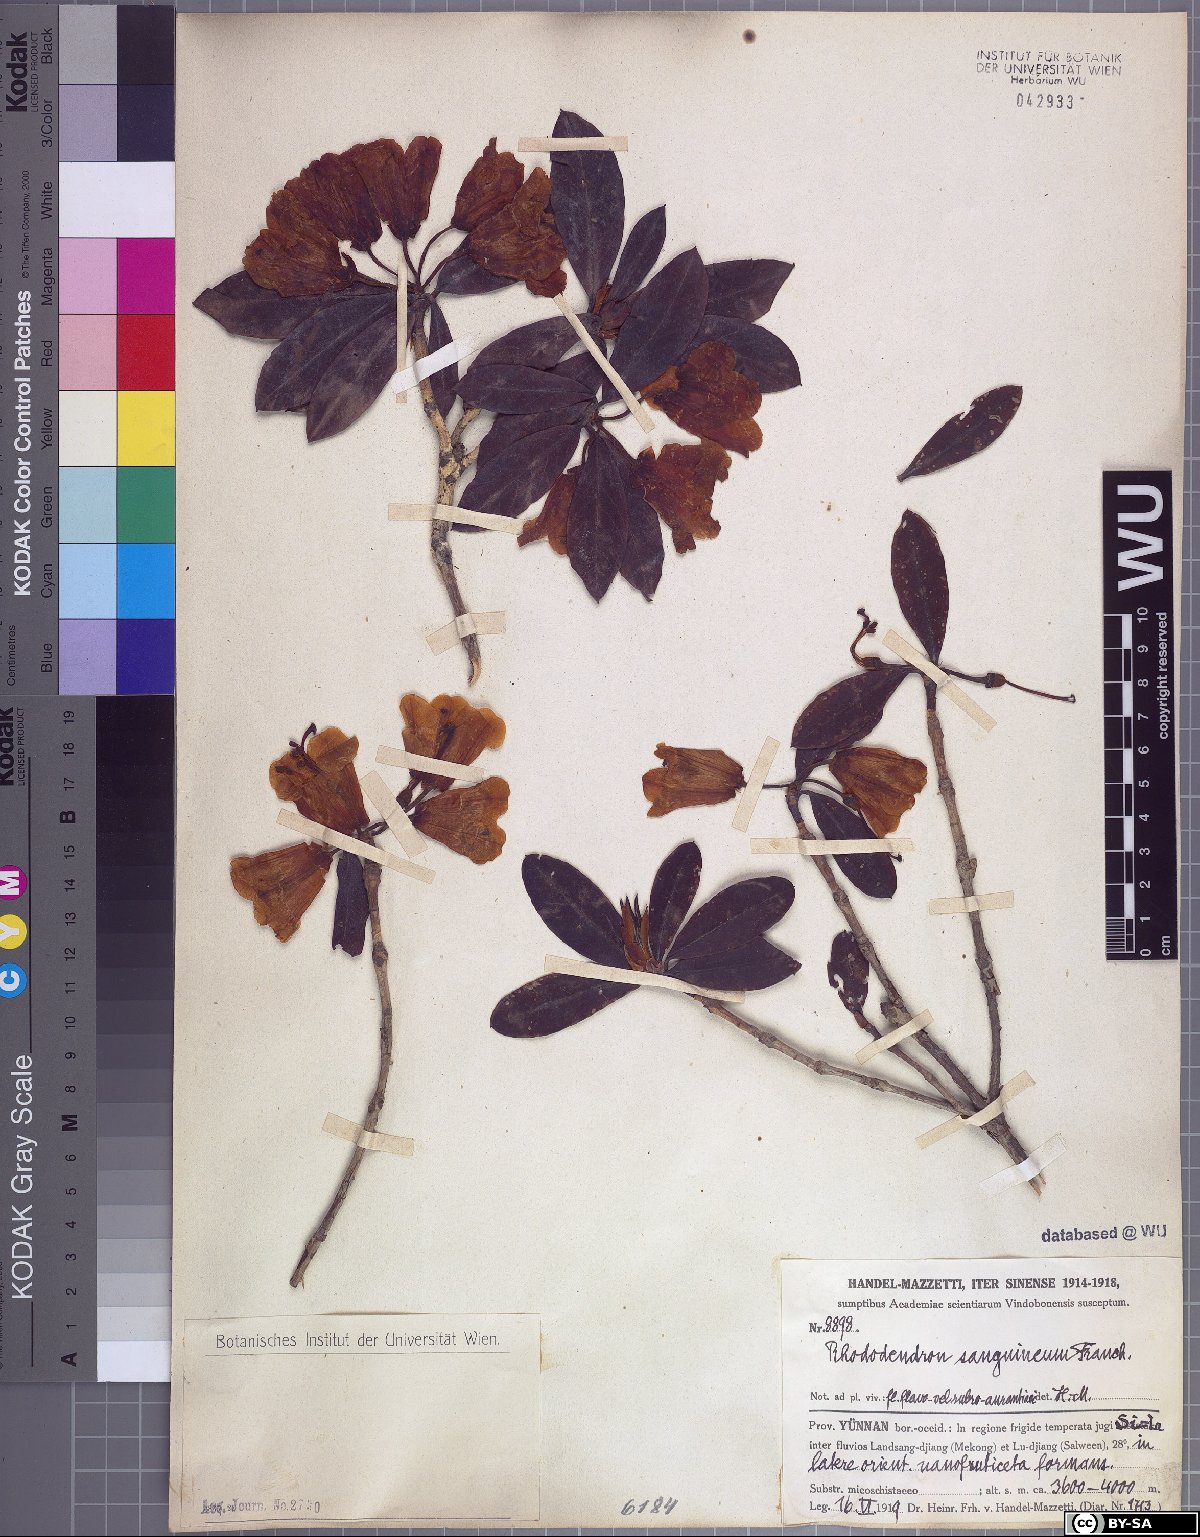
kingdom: Plantae
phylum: Tracheophyta
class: Magnoliopsida
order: Ericales
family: Ericaceae
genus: Rhododendron
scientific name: Rhododendron sanguineum
